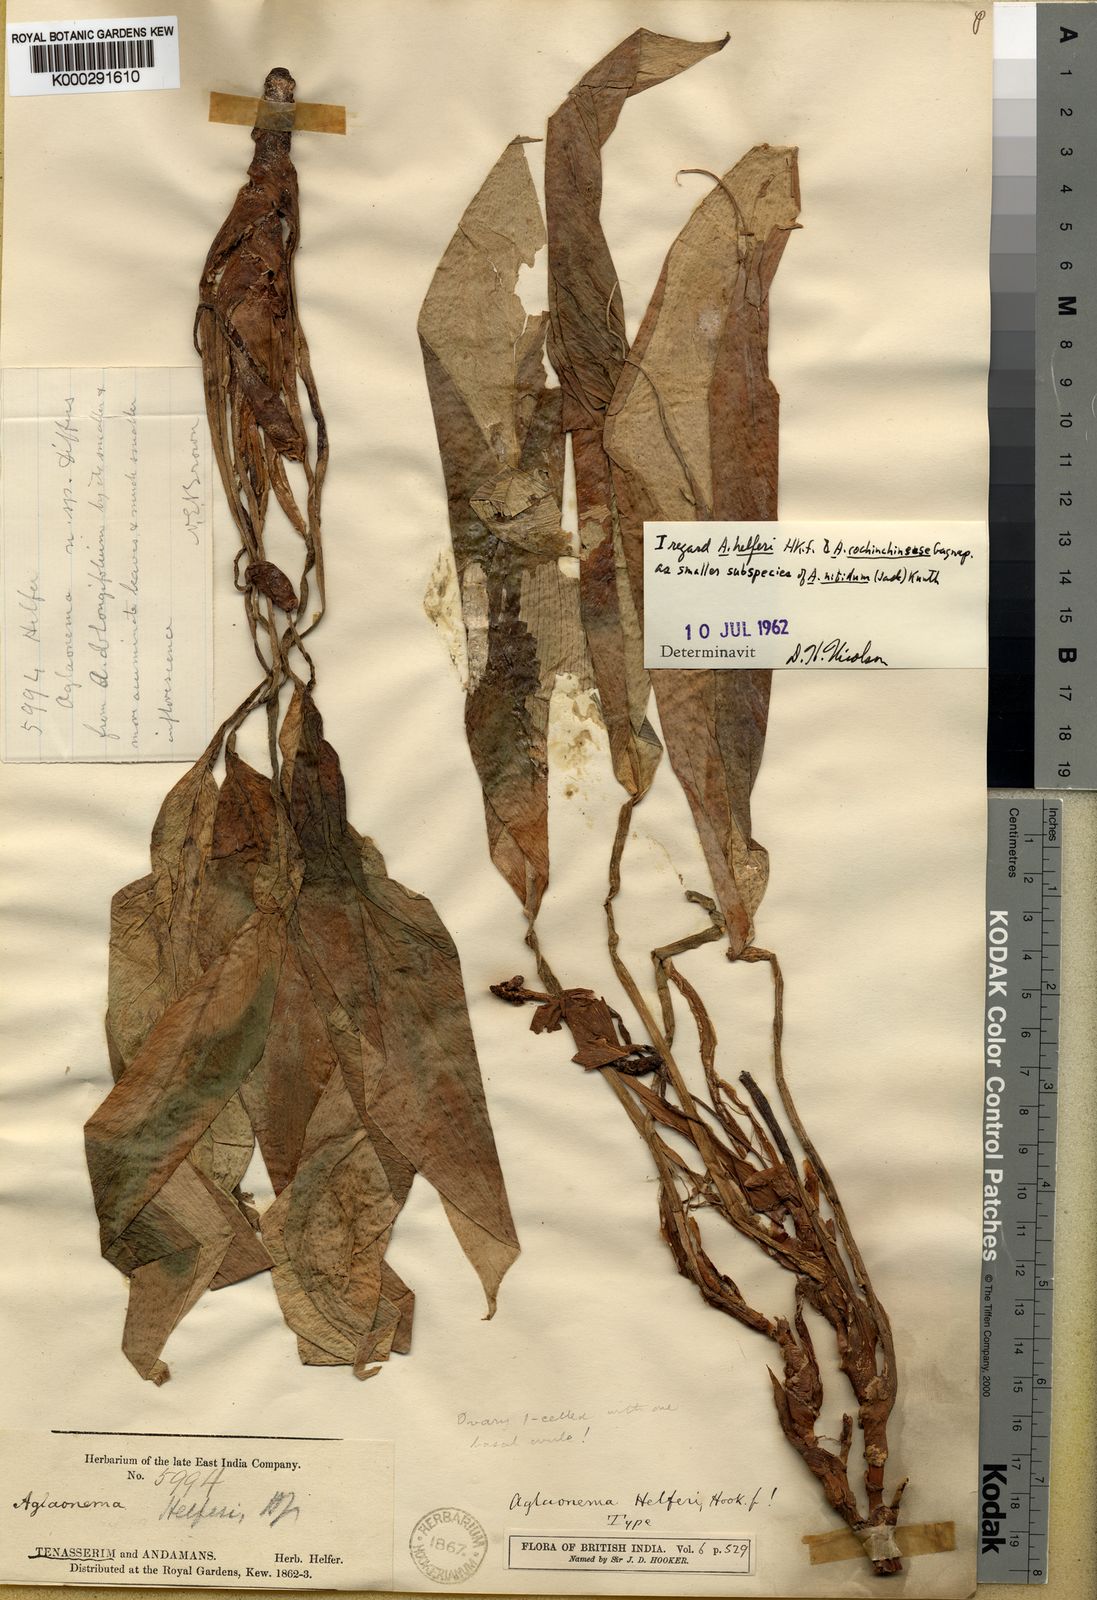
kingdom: Plantae
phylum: Tracheophyta
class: Liliopsida
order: Alismatales
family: Araceae
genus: Aglaonema
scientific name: Aglaonema nitidum
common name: Aglaonema aroid
